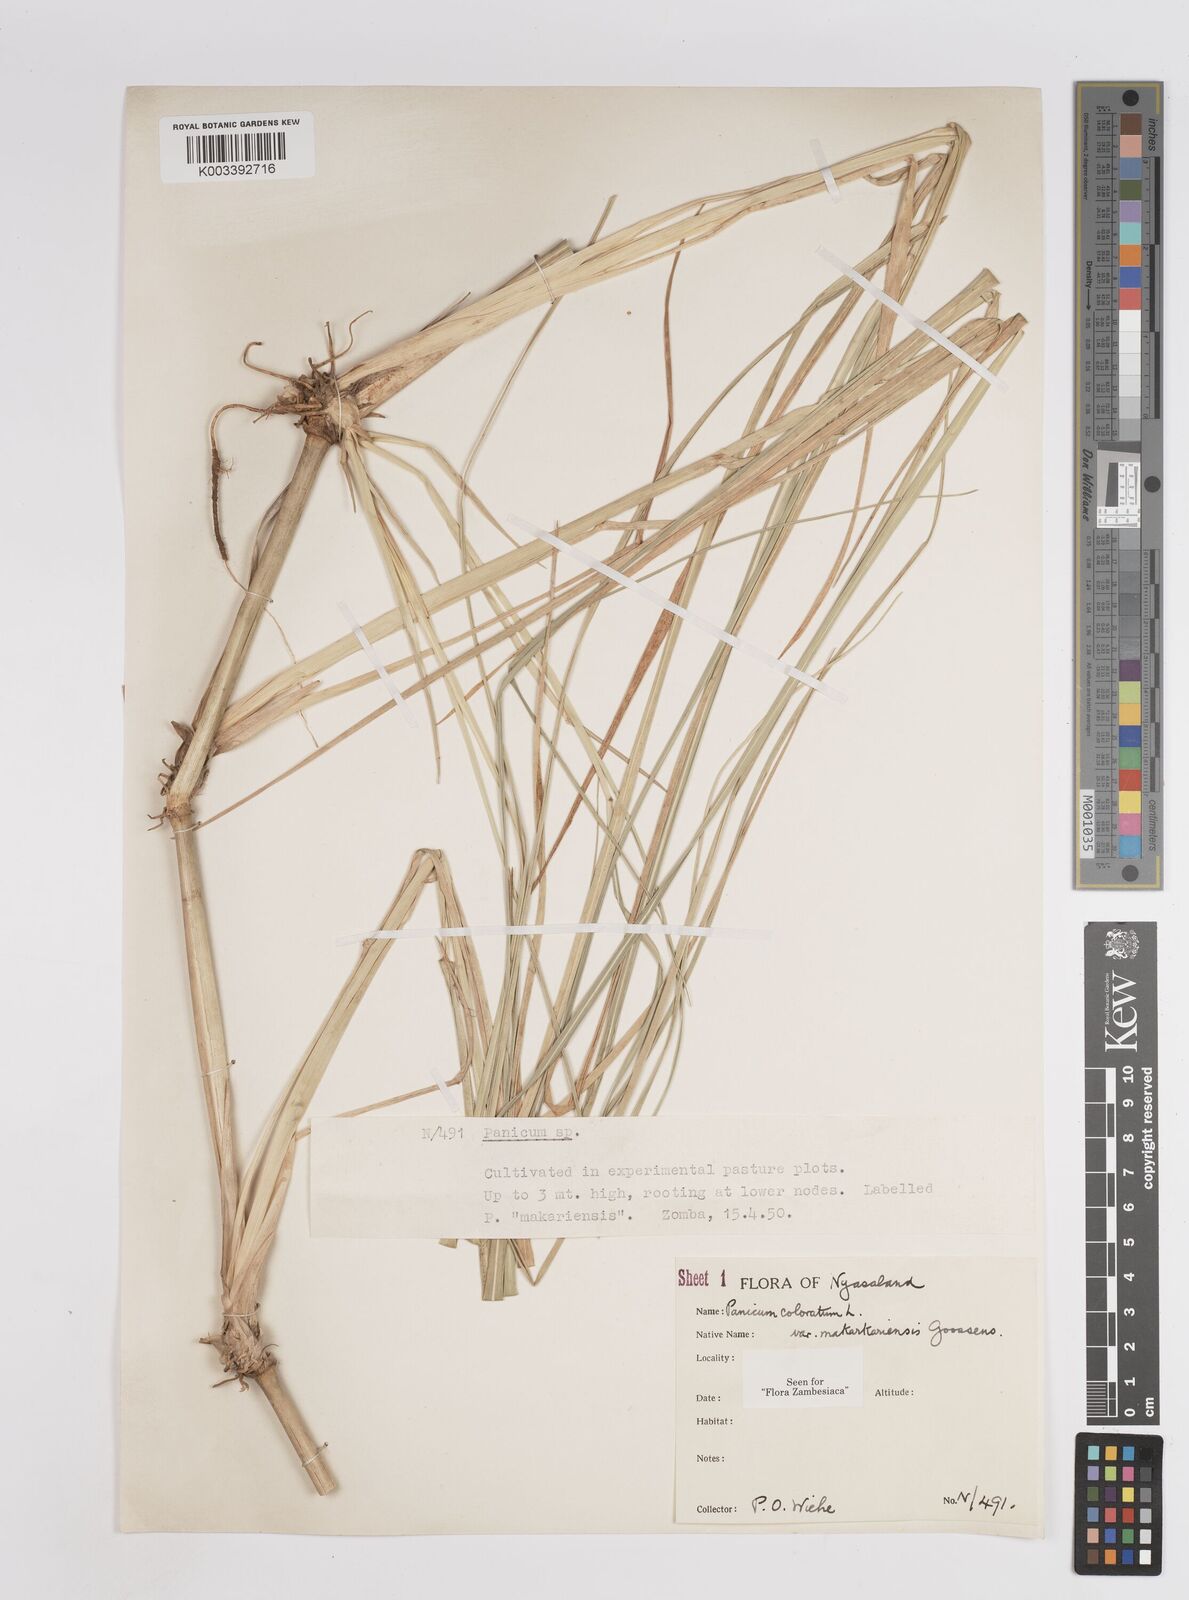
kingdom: Plantae
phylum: Tracheophyta
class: Liliopsida
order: Poales
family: Poaceae
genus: Panicum
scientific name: Panicum coloratum
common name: Kleingrass
